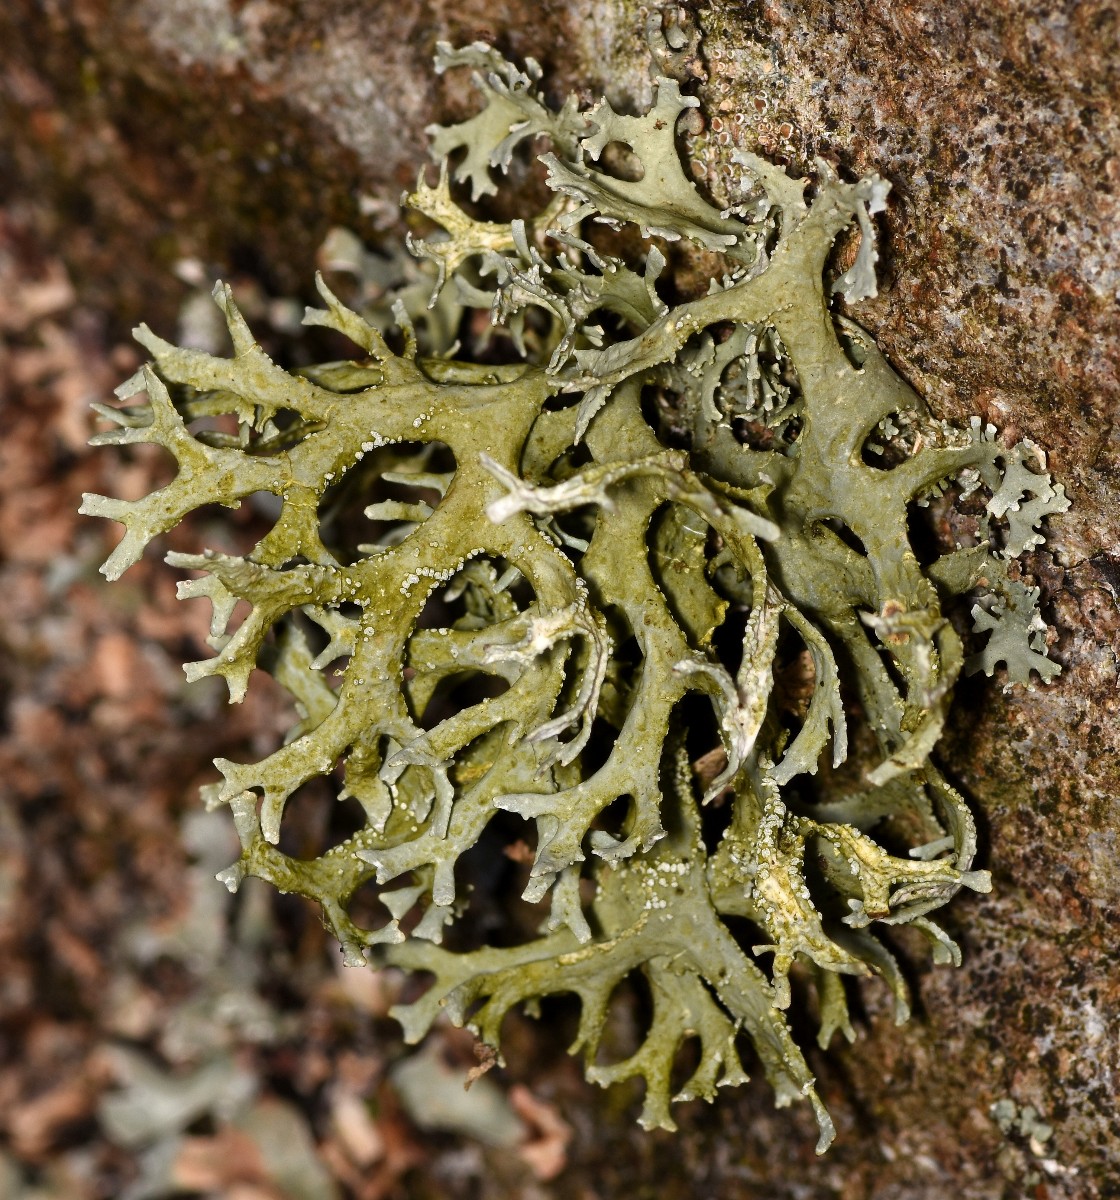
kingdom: Fungi
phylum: Ascomycota
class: Lecanoromycetes
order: Lecanorales
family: Parmeliaceae
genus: Evernia
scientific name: Evernia prunastri
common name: almindelig slåenlav
